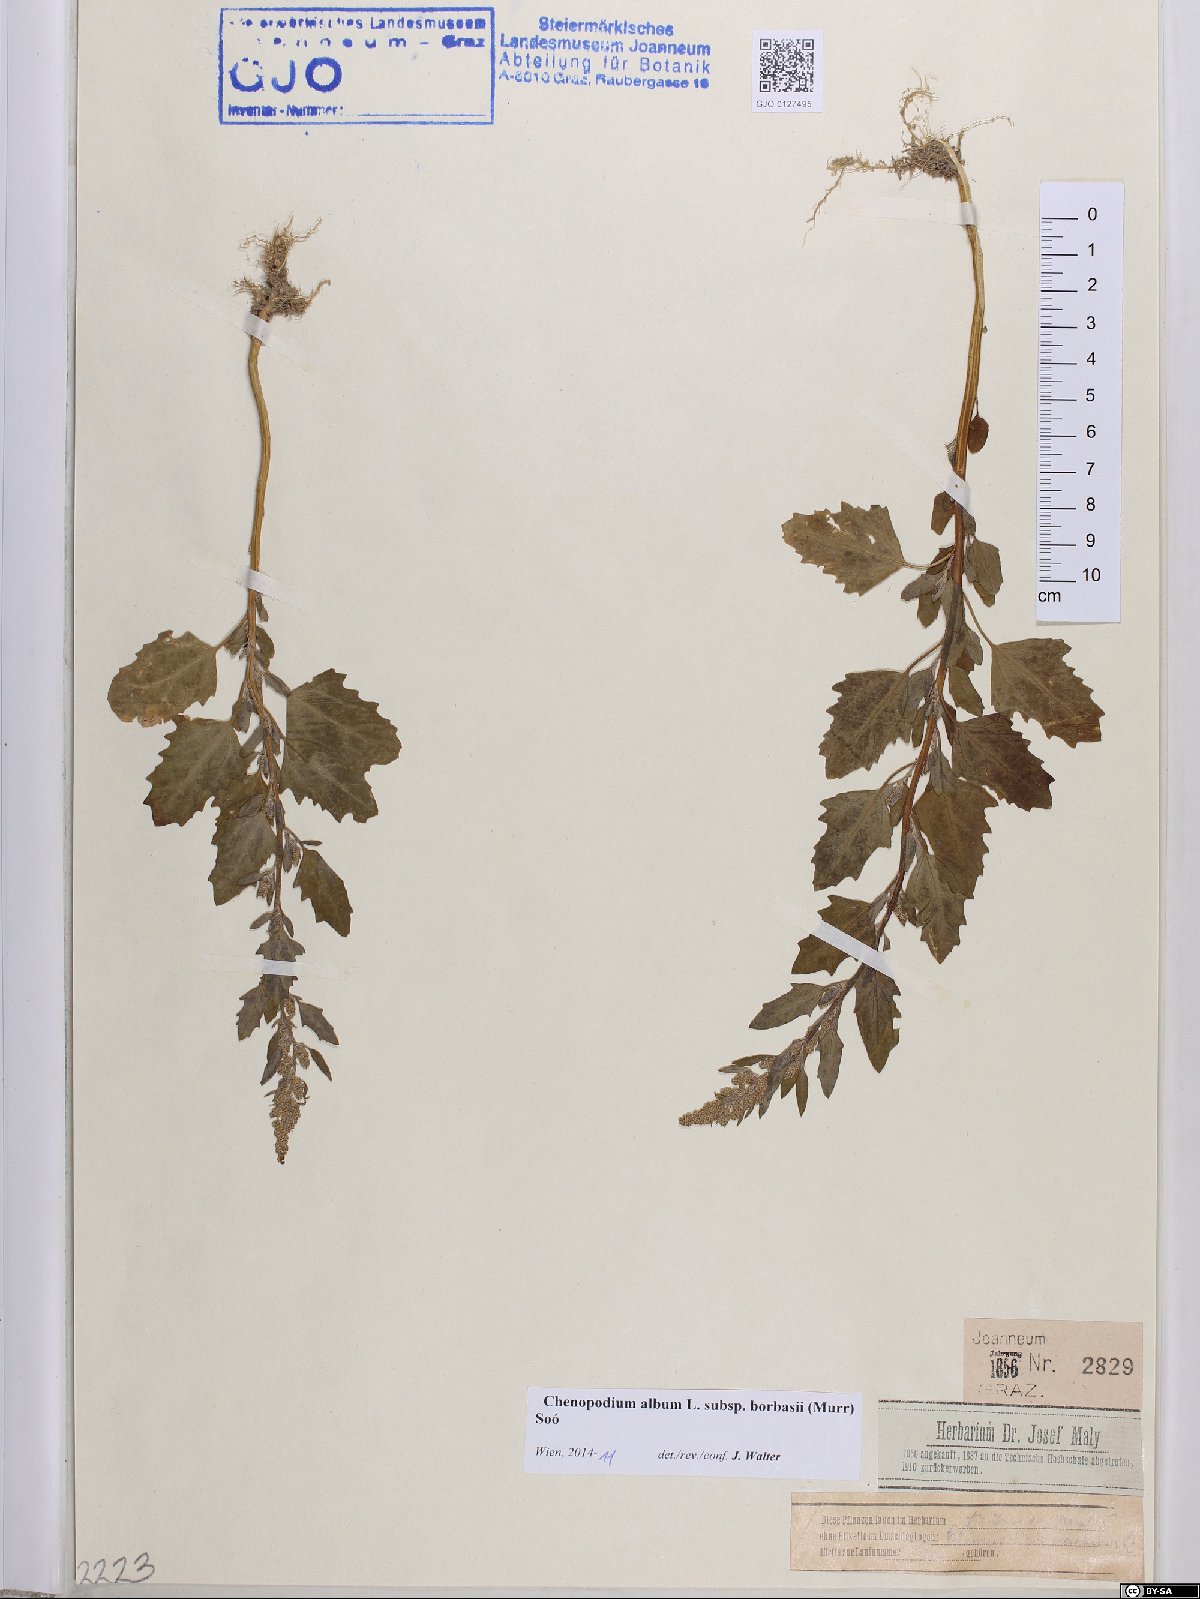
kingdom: Plantae
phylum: Tracheophyta
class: Magnoliopsida
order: Caryophyllales
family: Amaranthaceae
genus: Chenopodium
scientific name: Chenopodium borbasii
